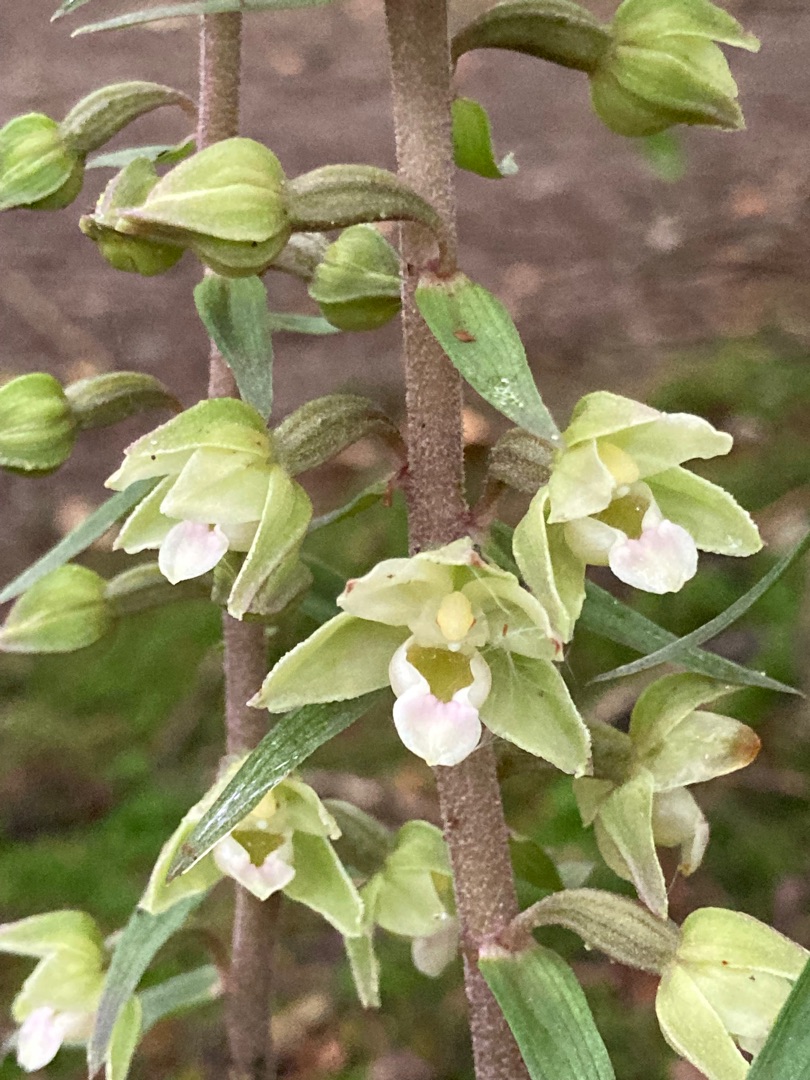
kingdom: Plantae
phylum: Tracheophyta
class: Liliopsida
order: Asparagales
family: Orchidaceae
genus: Epipactis
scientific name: Epipactis purpurata
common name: Tætblomstret hullæbe
